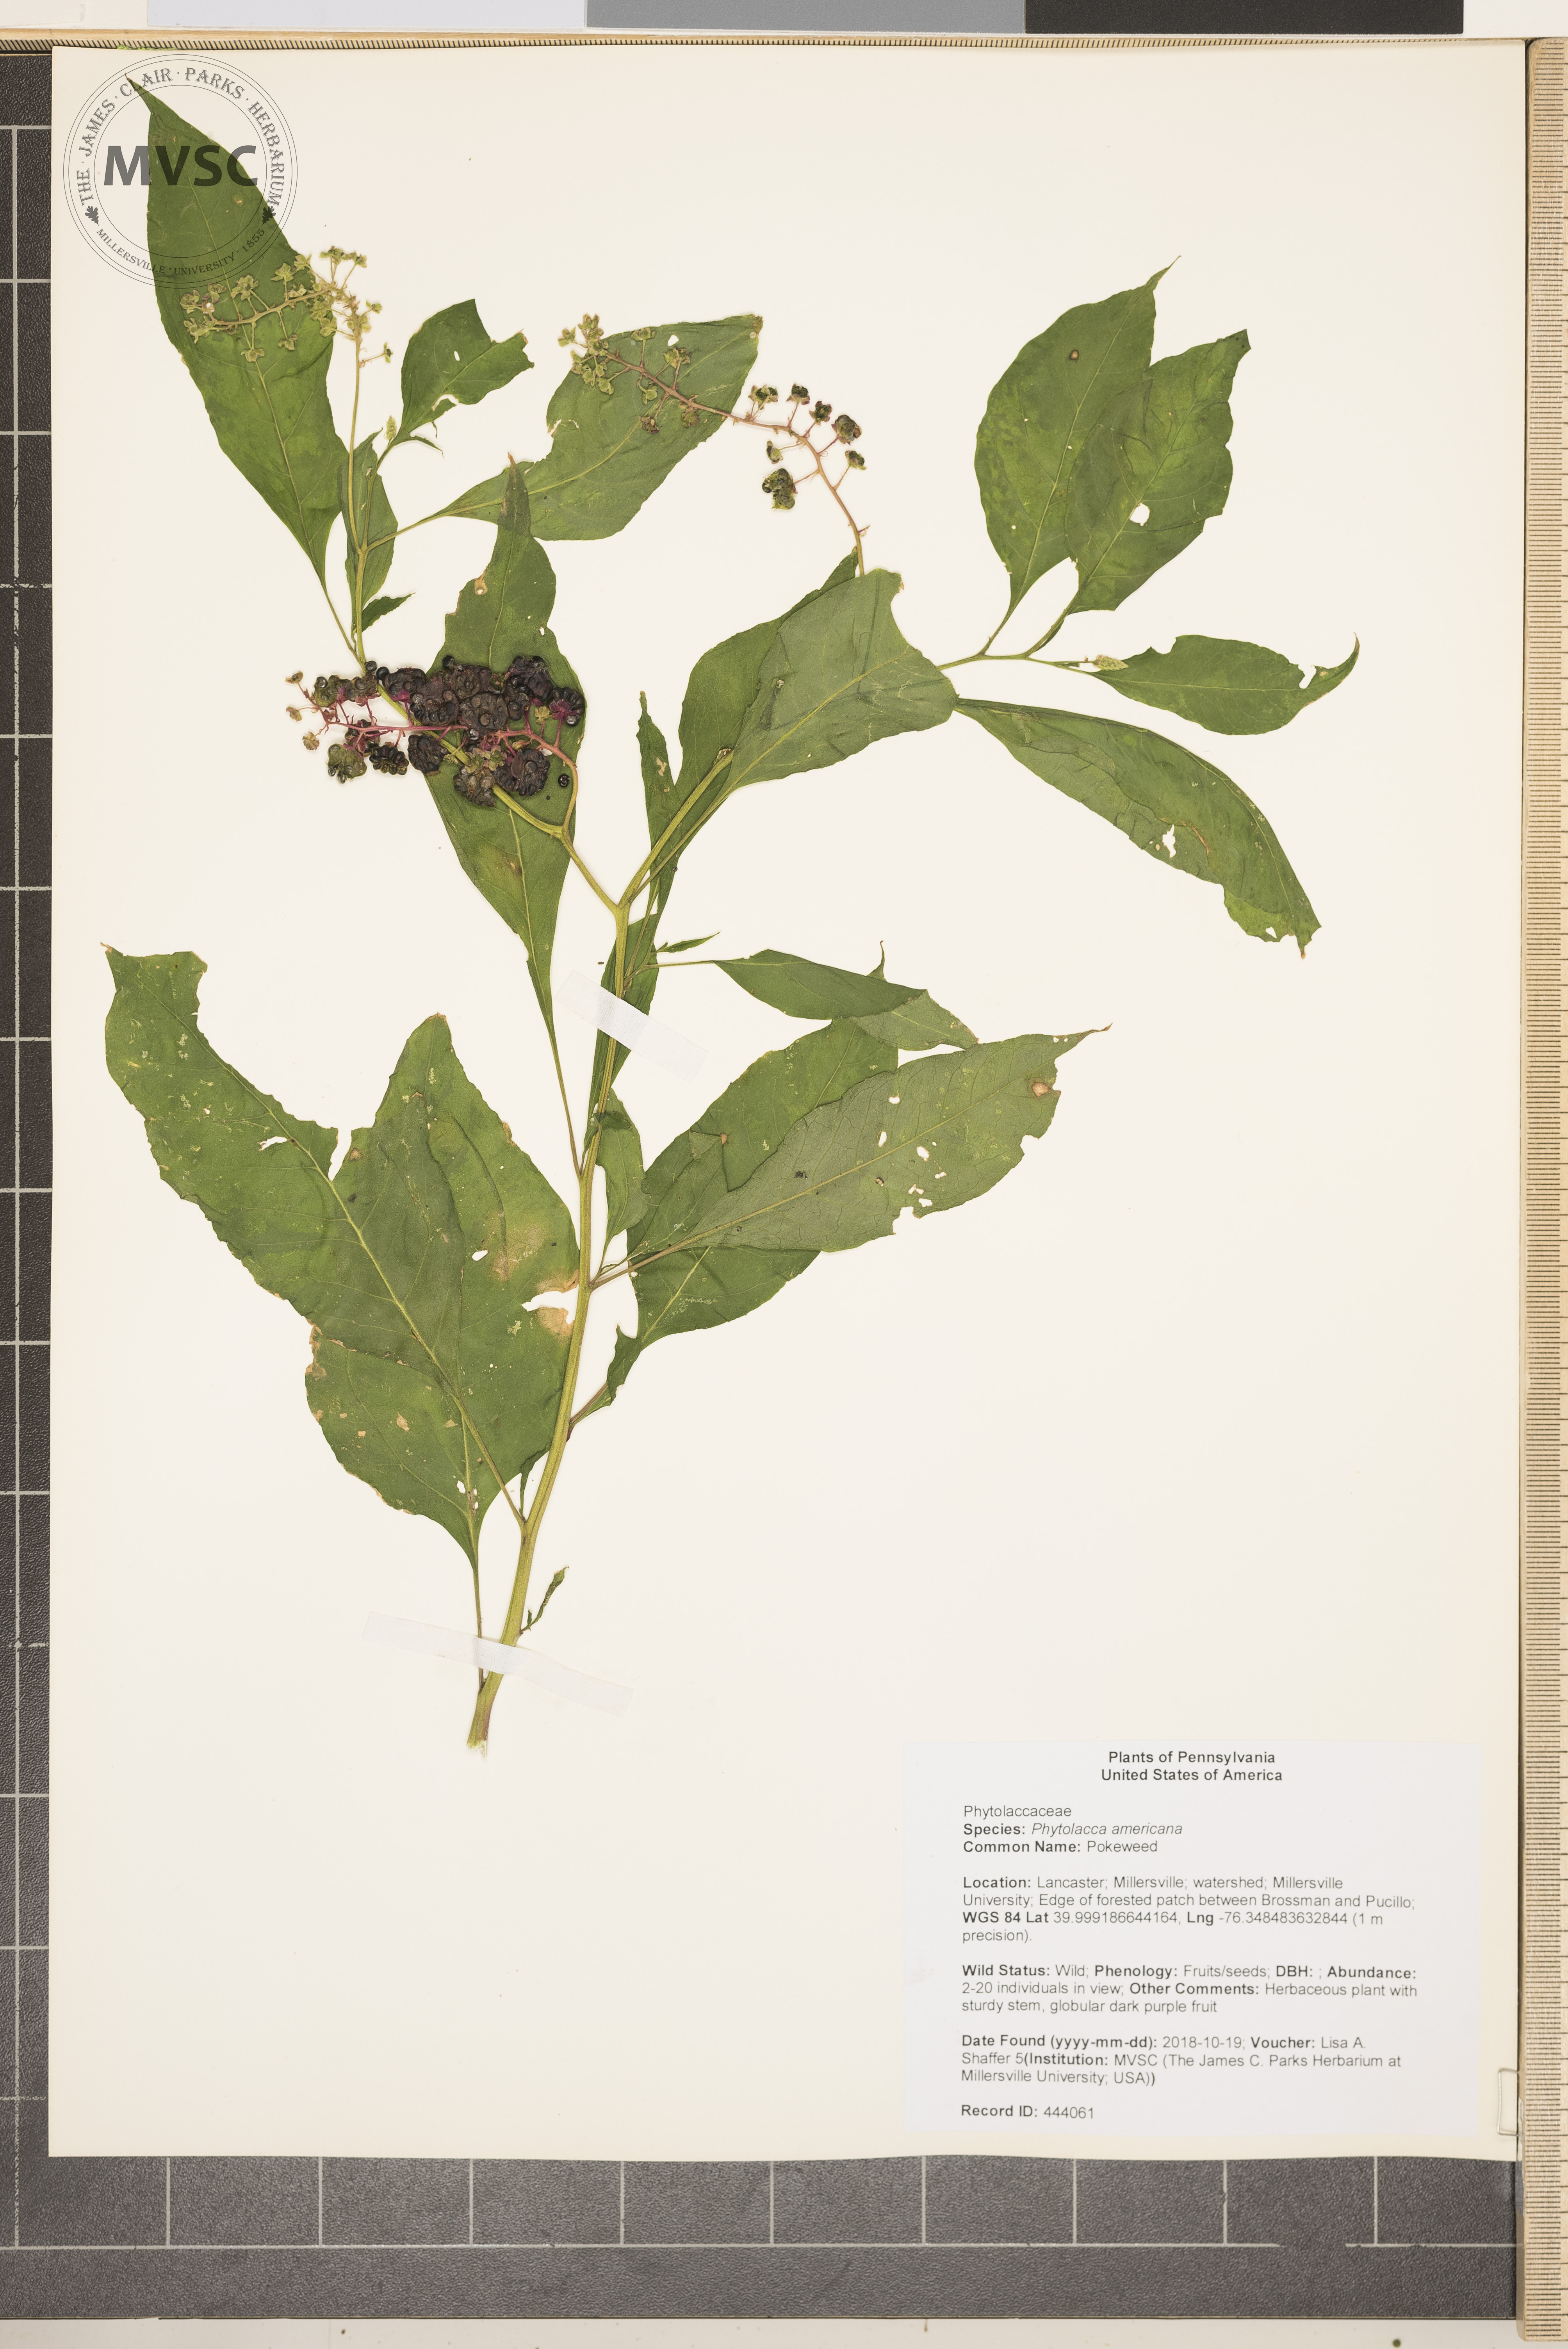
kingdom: Plantae
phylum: Tracheophyta
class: Magnoliopsida
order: Caryophyllales
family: Phytolaccaceae
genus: Phytolacca
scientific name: Phytolacca americana
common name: Pokeweed
